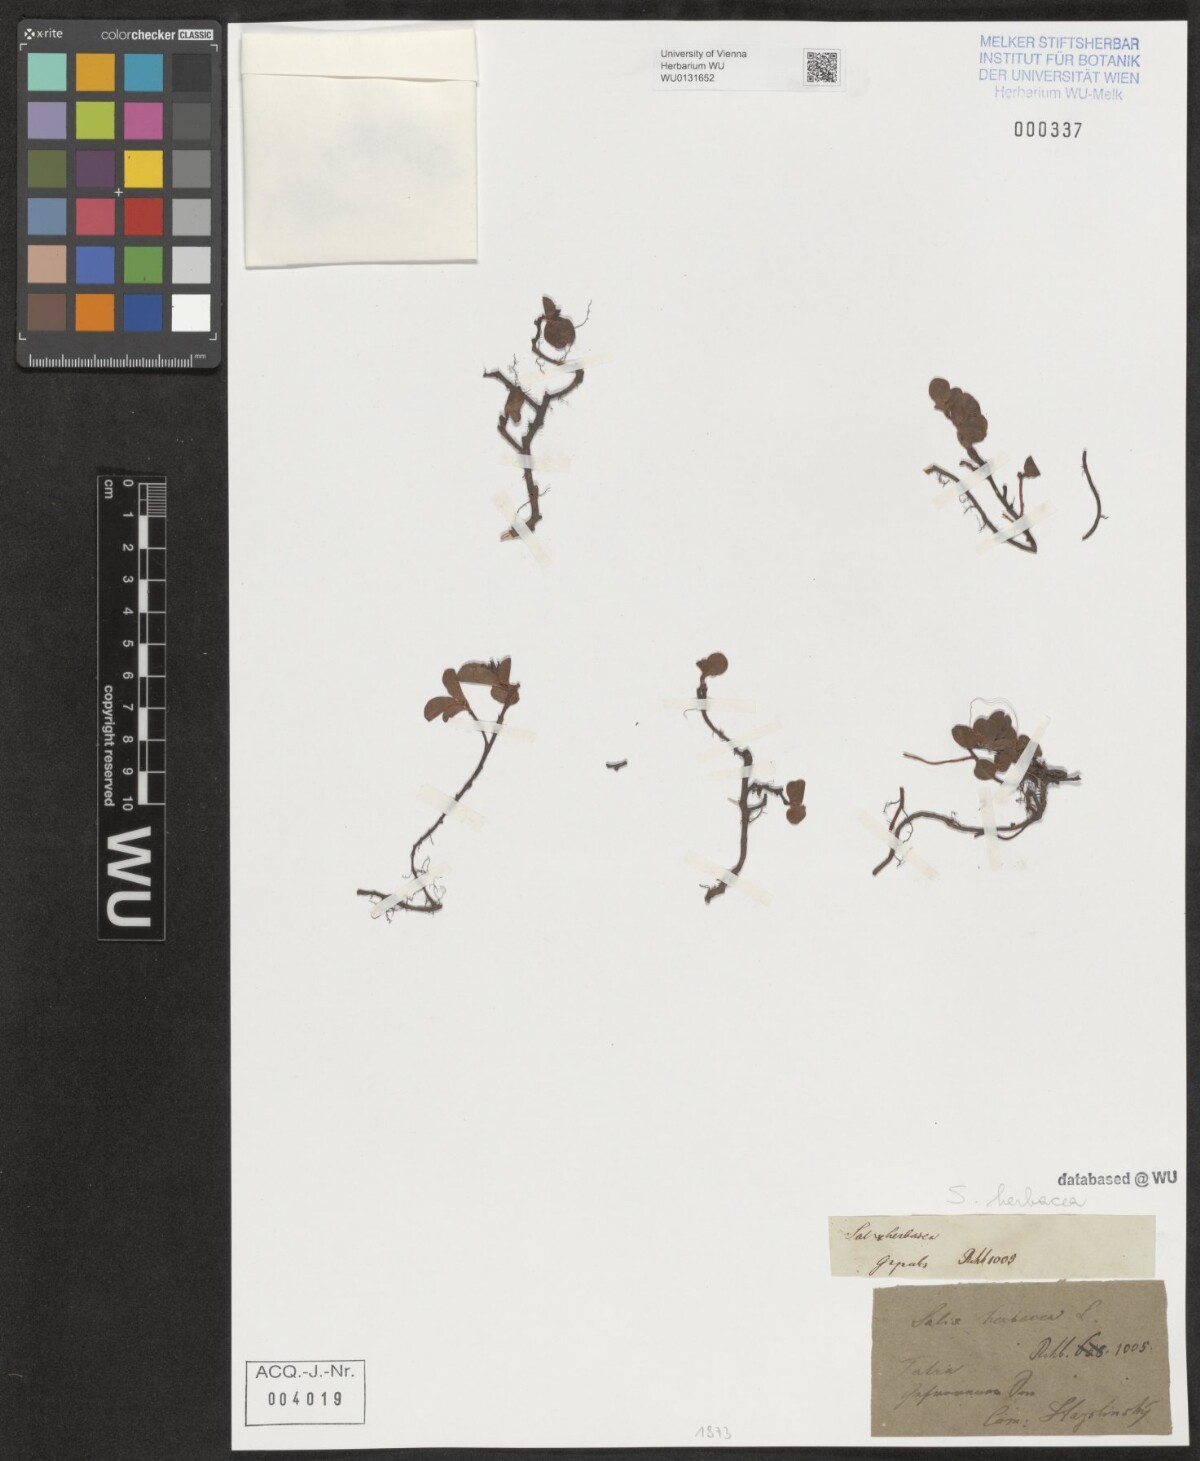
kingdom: Plantae
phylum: Tracheophyta
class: Magnoliopsida
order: Malpighiales
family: Salicaceae
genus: Salix
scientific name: Salix herbacea
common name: Dwarf willow
